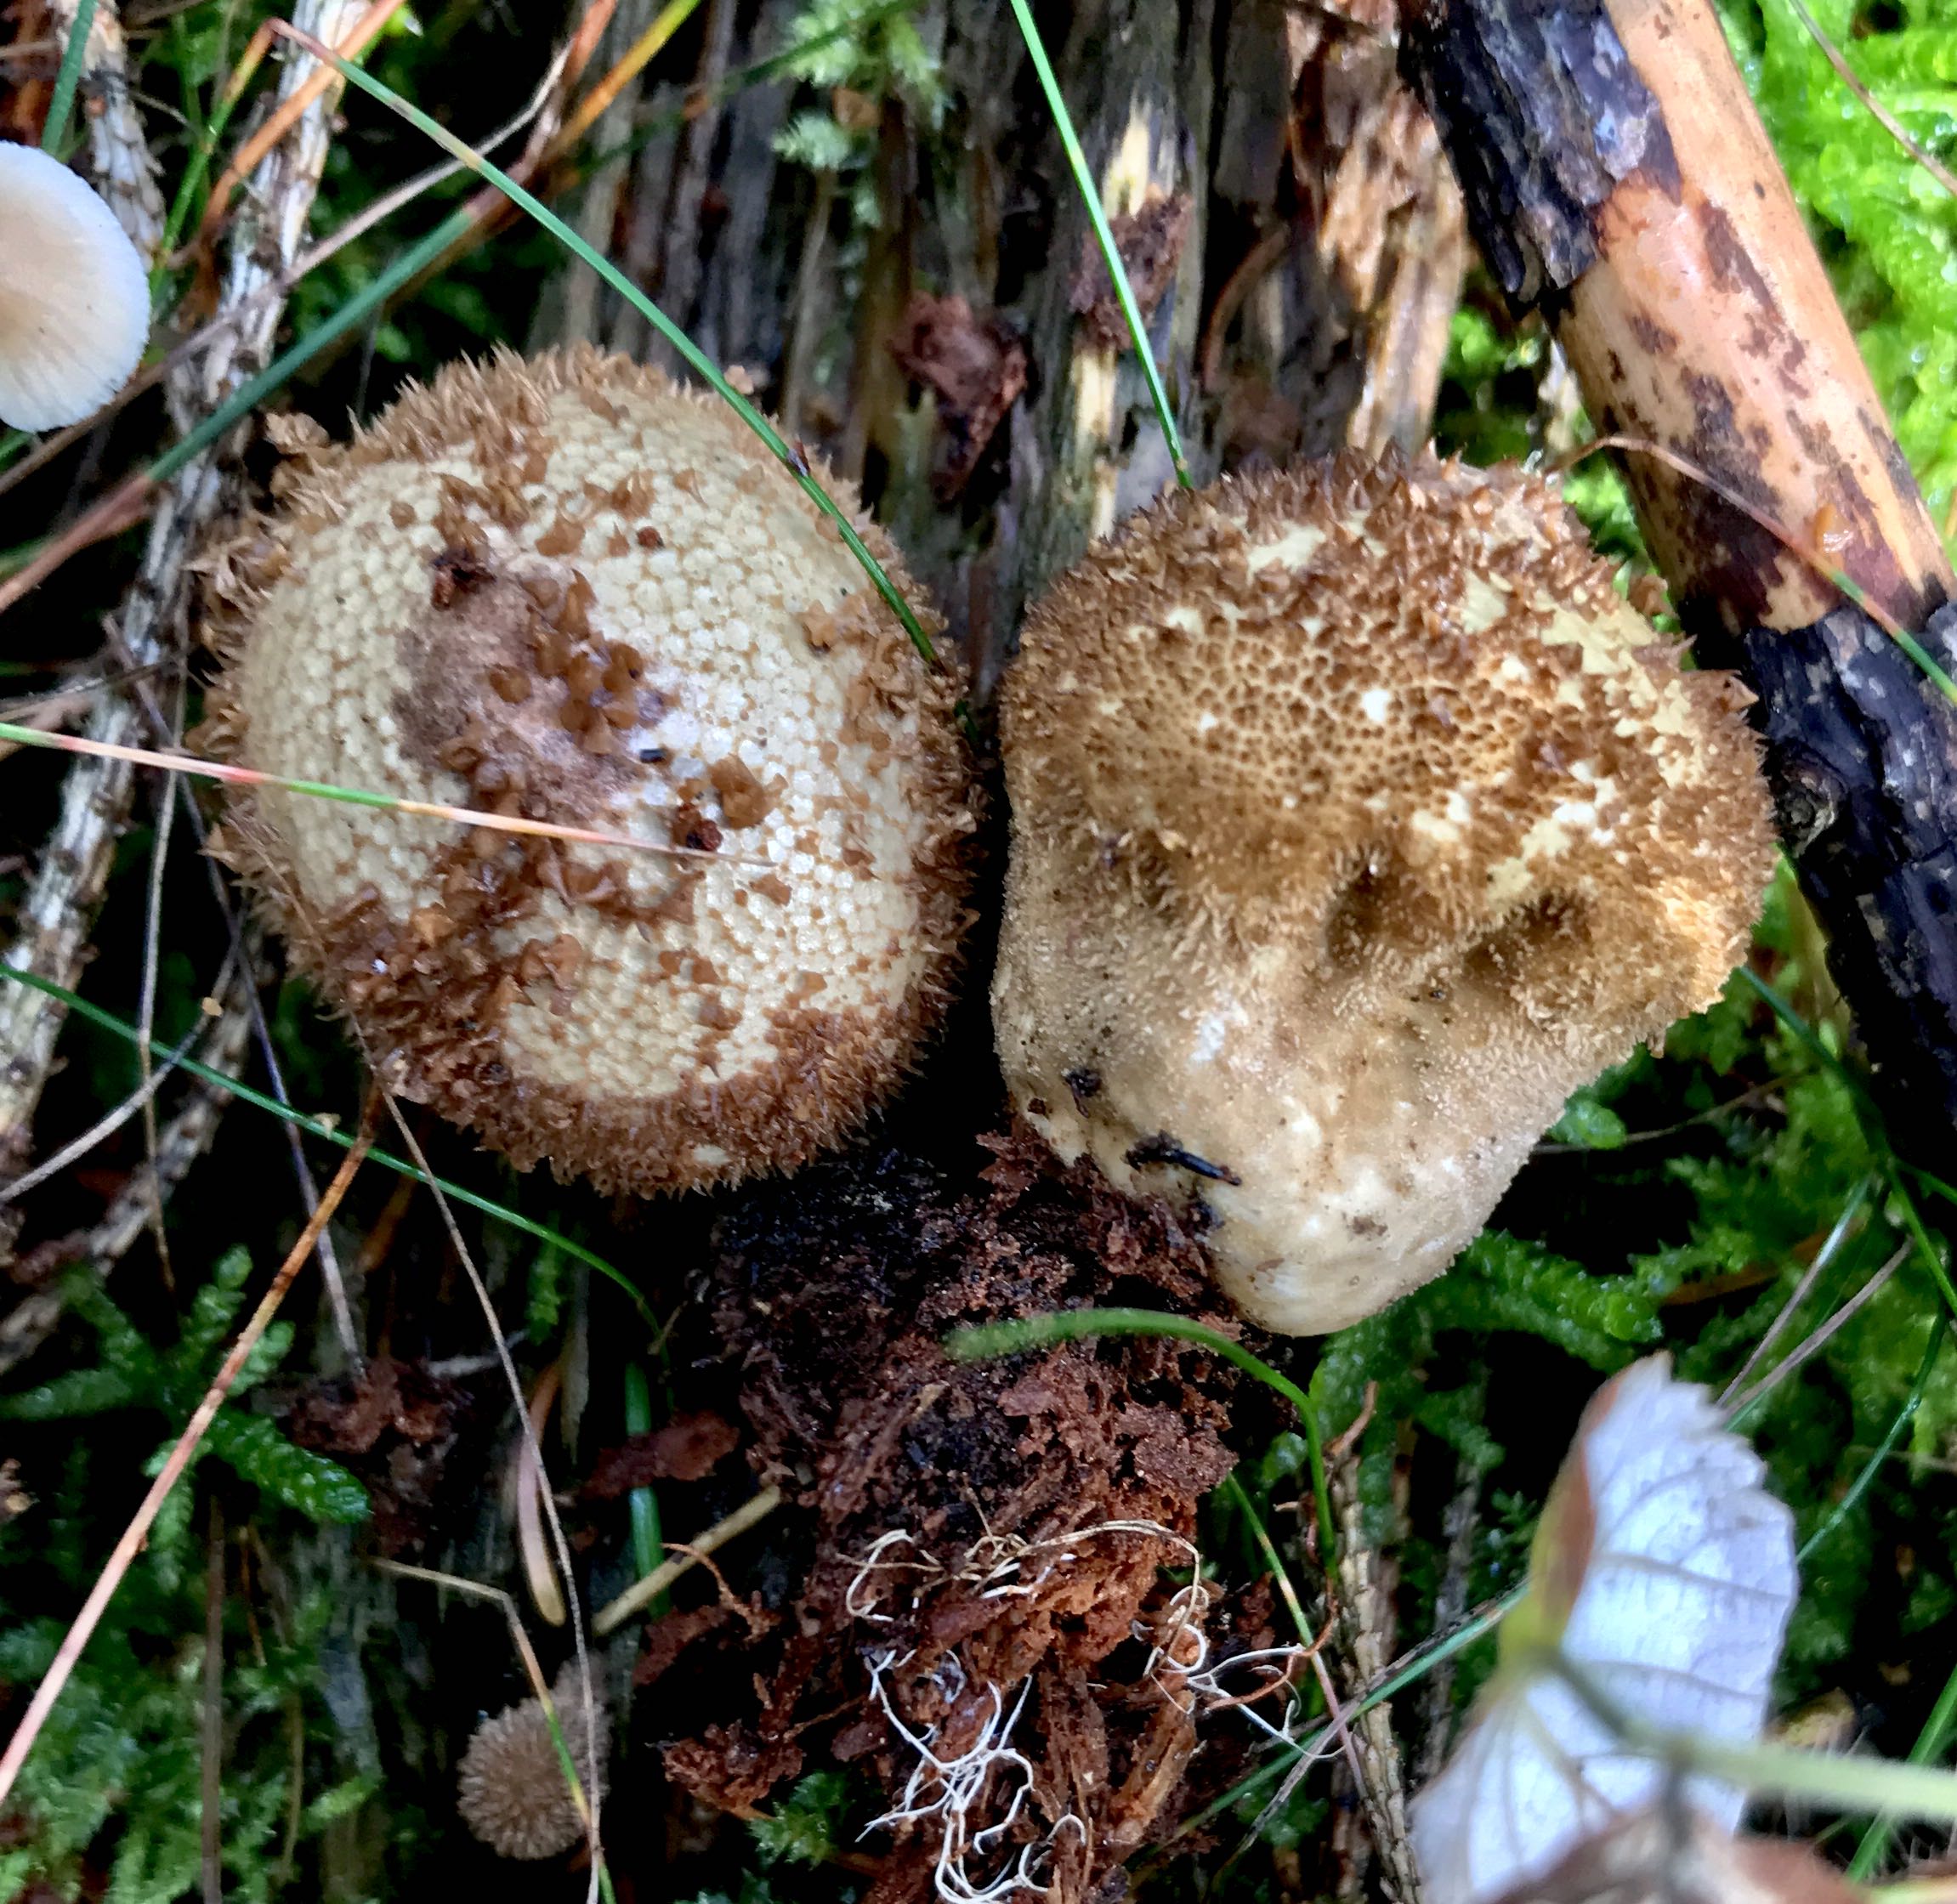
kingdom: Fungi
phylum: Basidiomycota
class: Agaricomycetes
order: Agaricales
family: Lycoperdaceae
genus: Lycoperdon
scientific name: Lycoperdon nigrescens
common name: sortagtig støvbold
